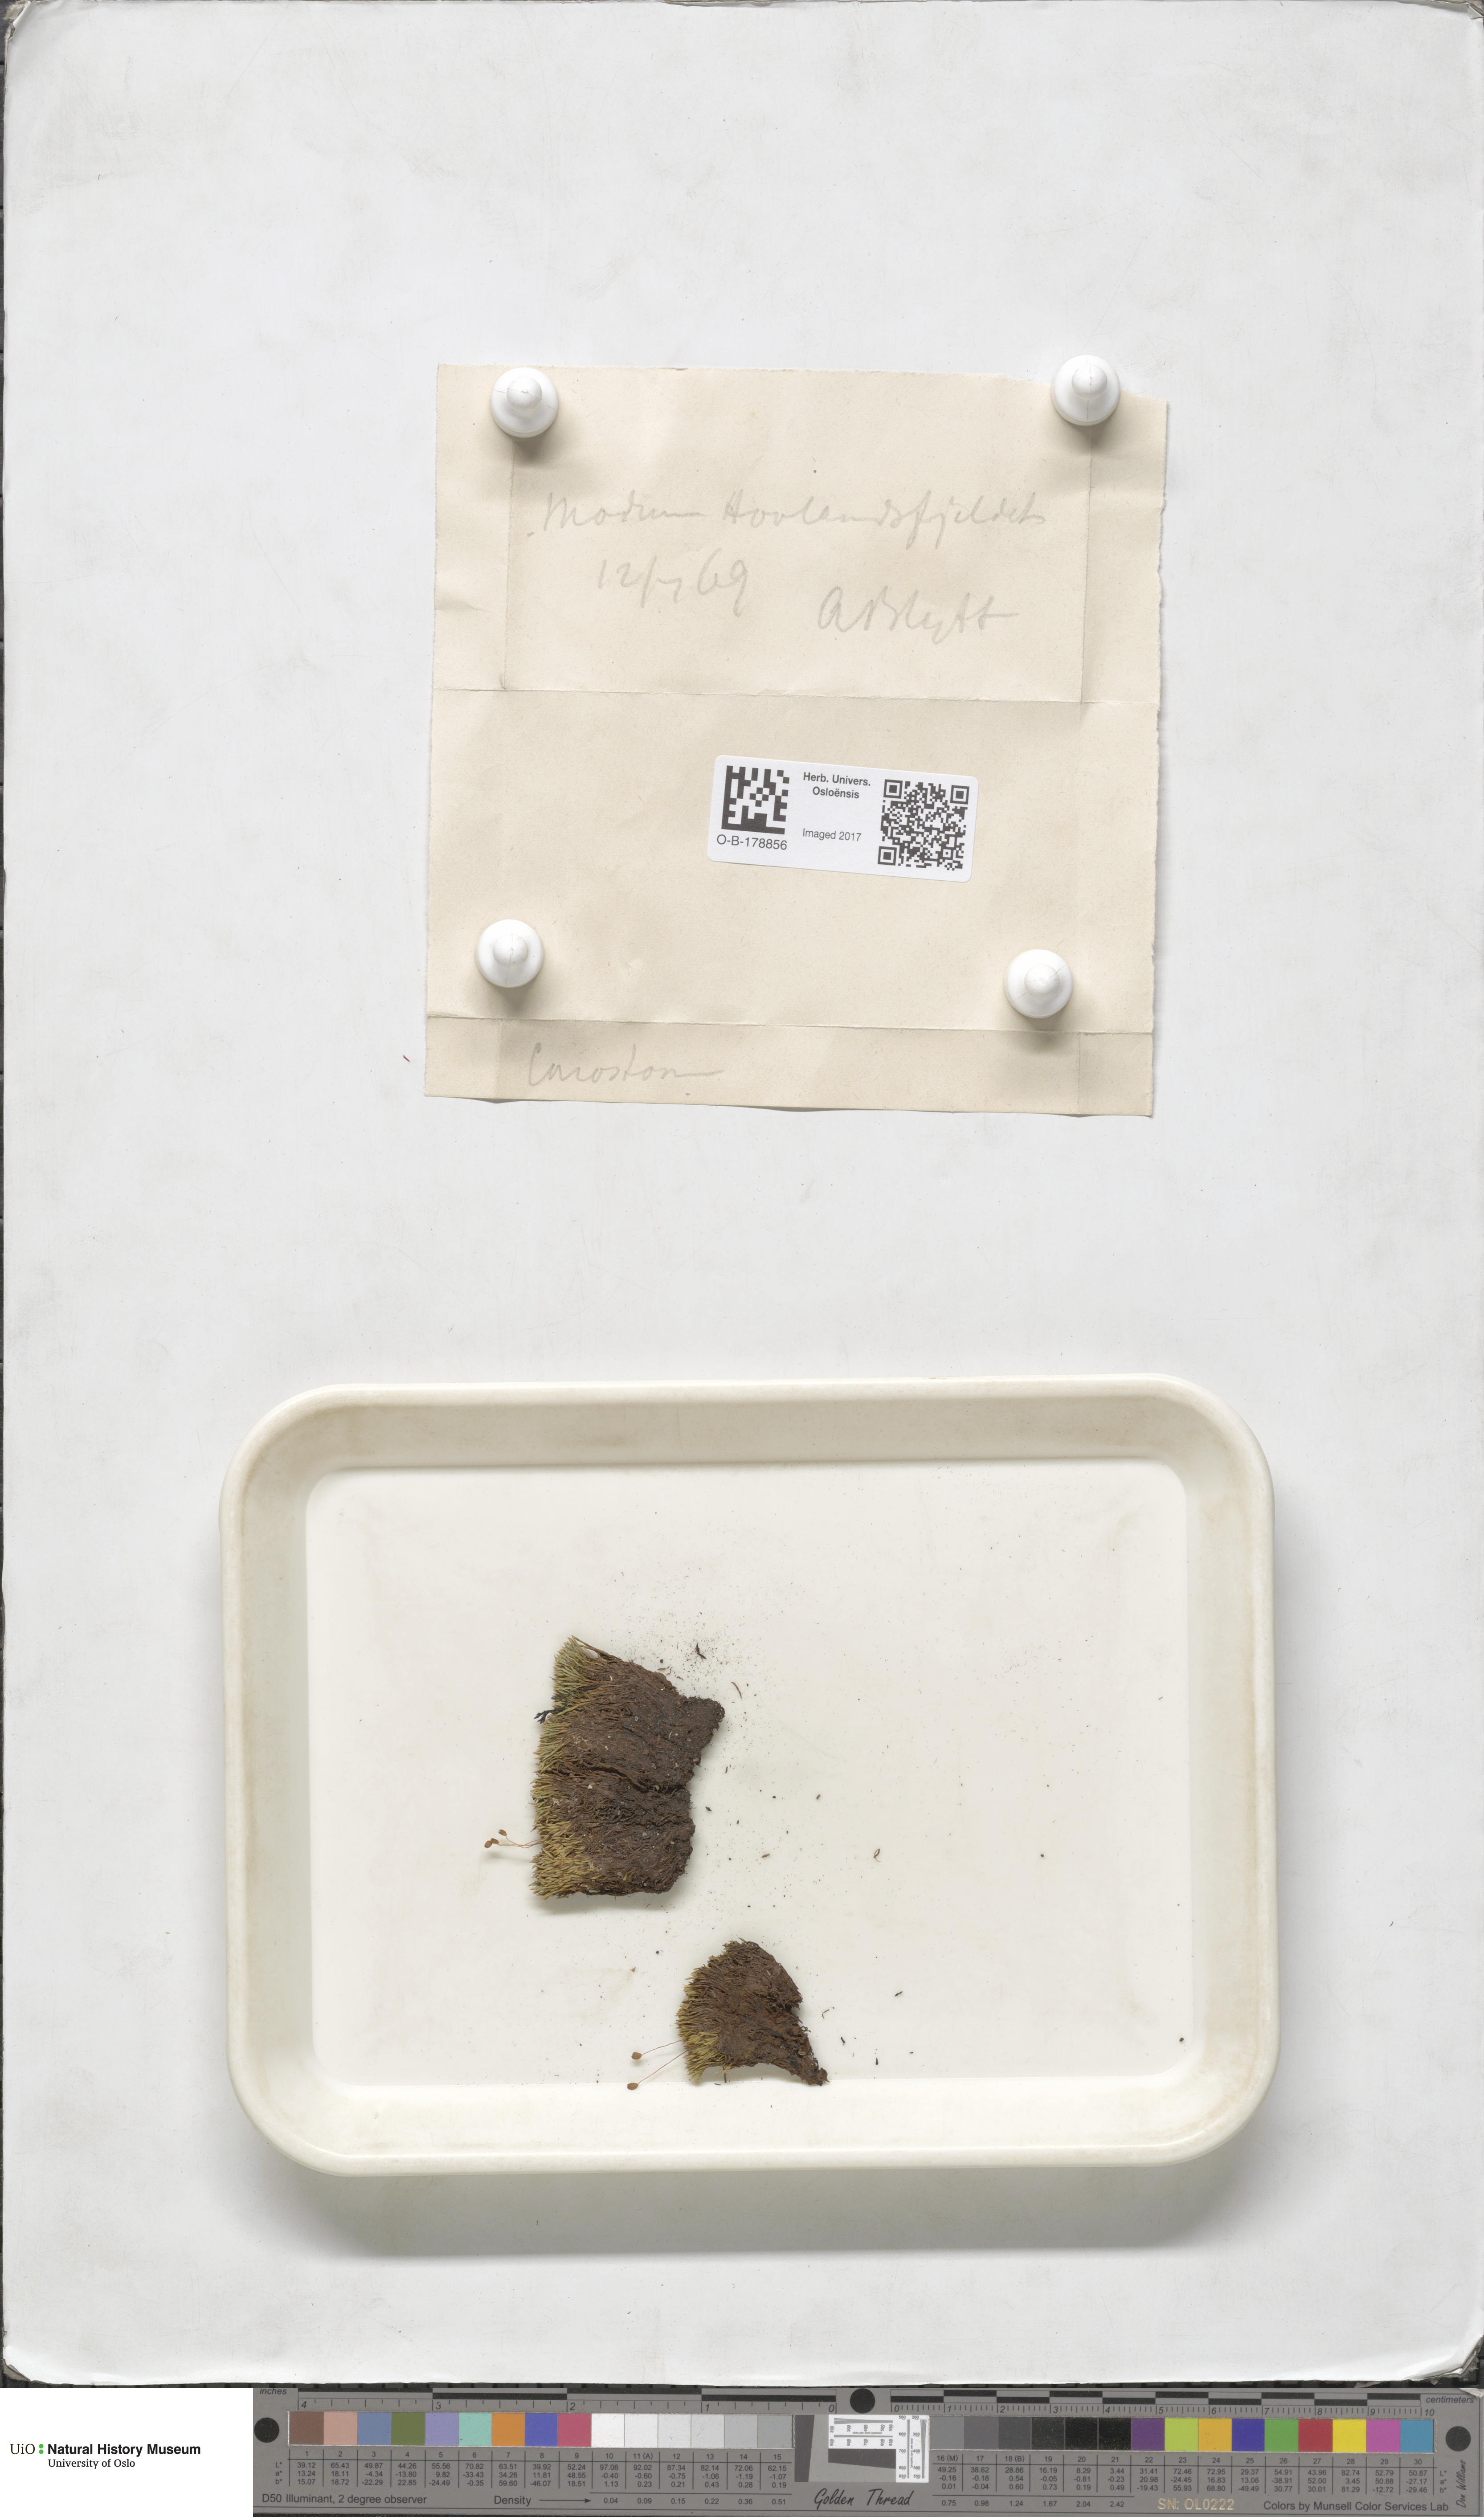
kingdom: Plantae
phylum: Bryophyta
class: Bryopsida
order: Bartramiales
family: Bartramiaceae
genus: Conostomum
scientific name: Conostomum tetragonum
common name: Helmet moss
